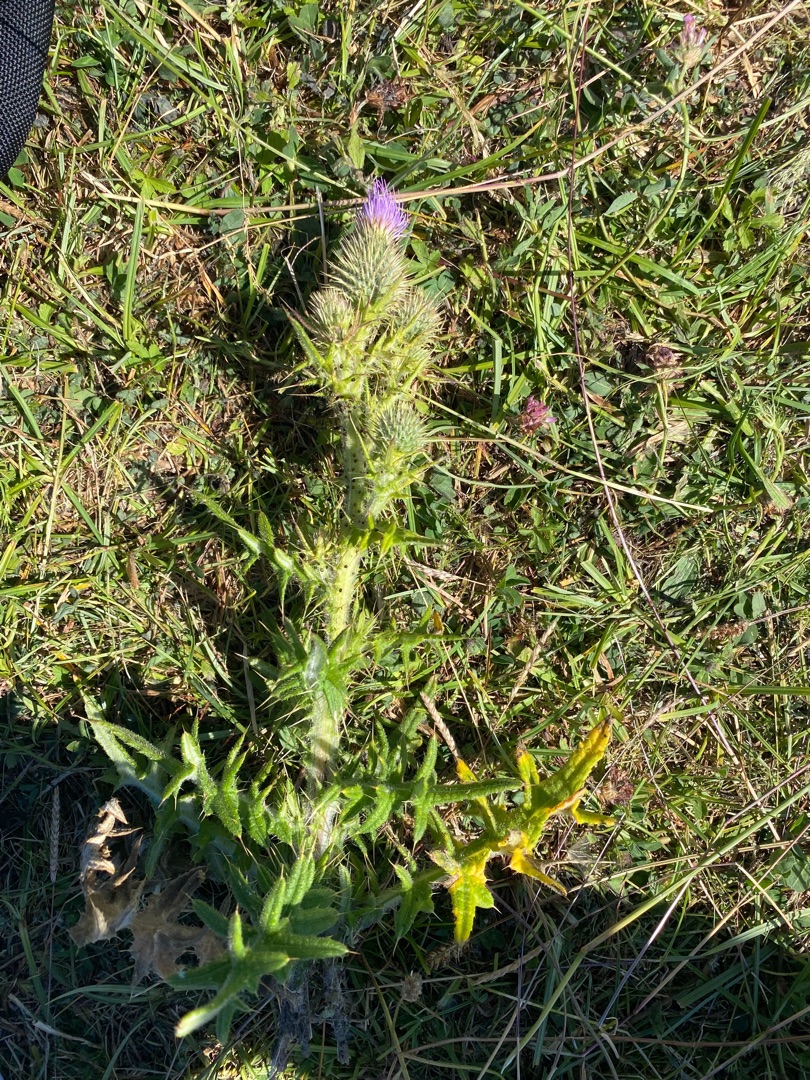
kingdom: Plantae
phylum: Tracheophyta
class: Magnoliopsida
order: Asterales
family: Asteraceae
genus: Cirsium
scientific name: Cirsium vulgare
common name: Horse-tidsel
